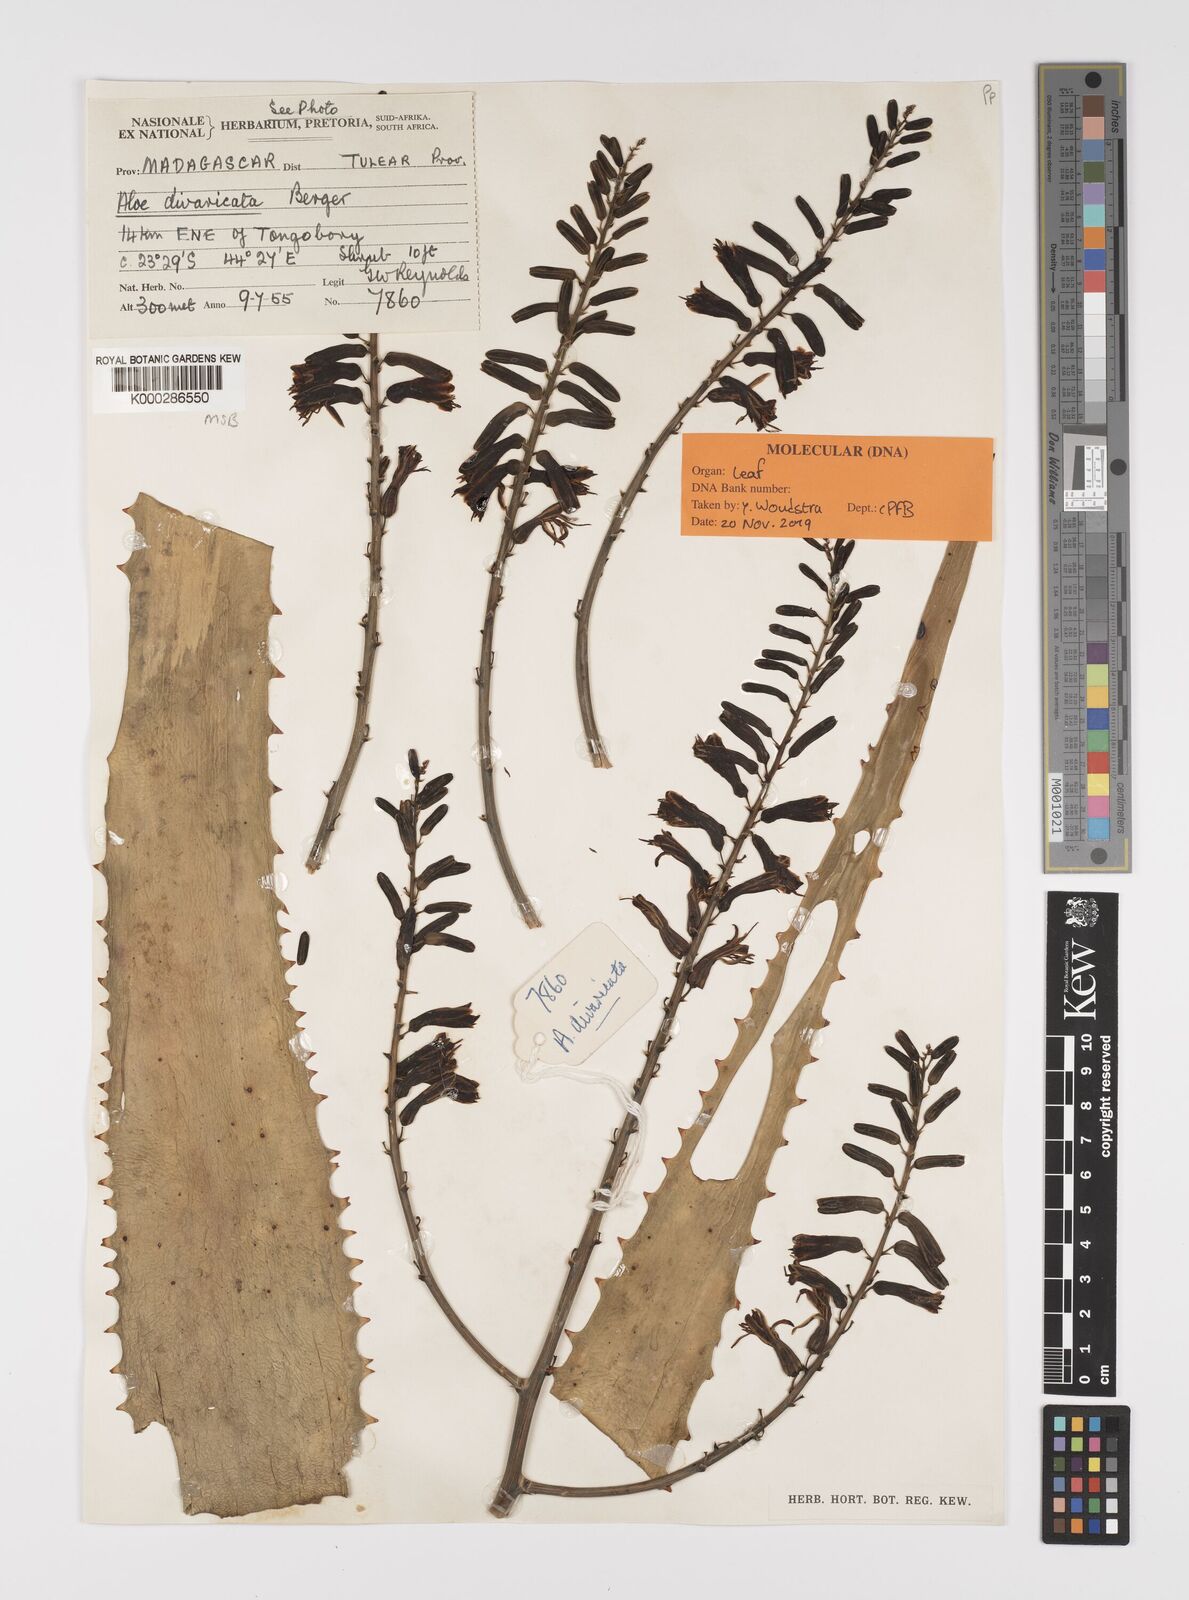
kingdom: Plantae
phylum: Tracheophyta
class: Liliopsida
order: Asparagales
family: Asphodelaceae
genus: Aloe
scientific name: Aloe divaricata
